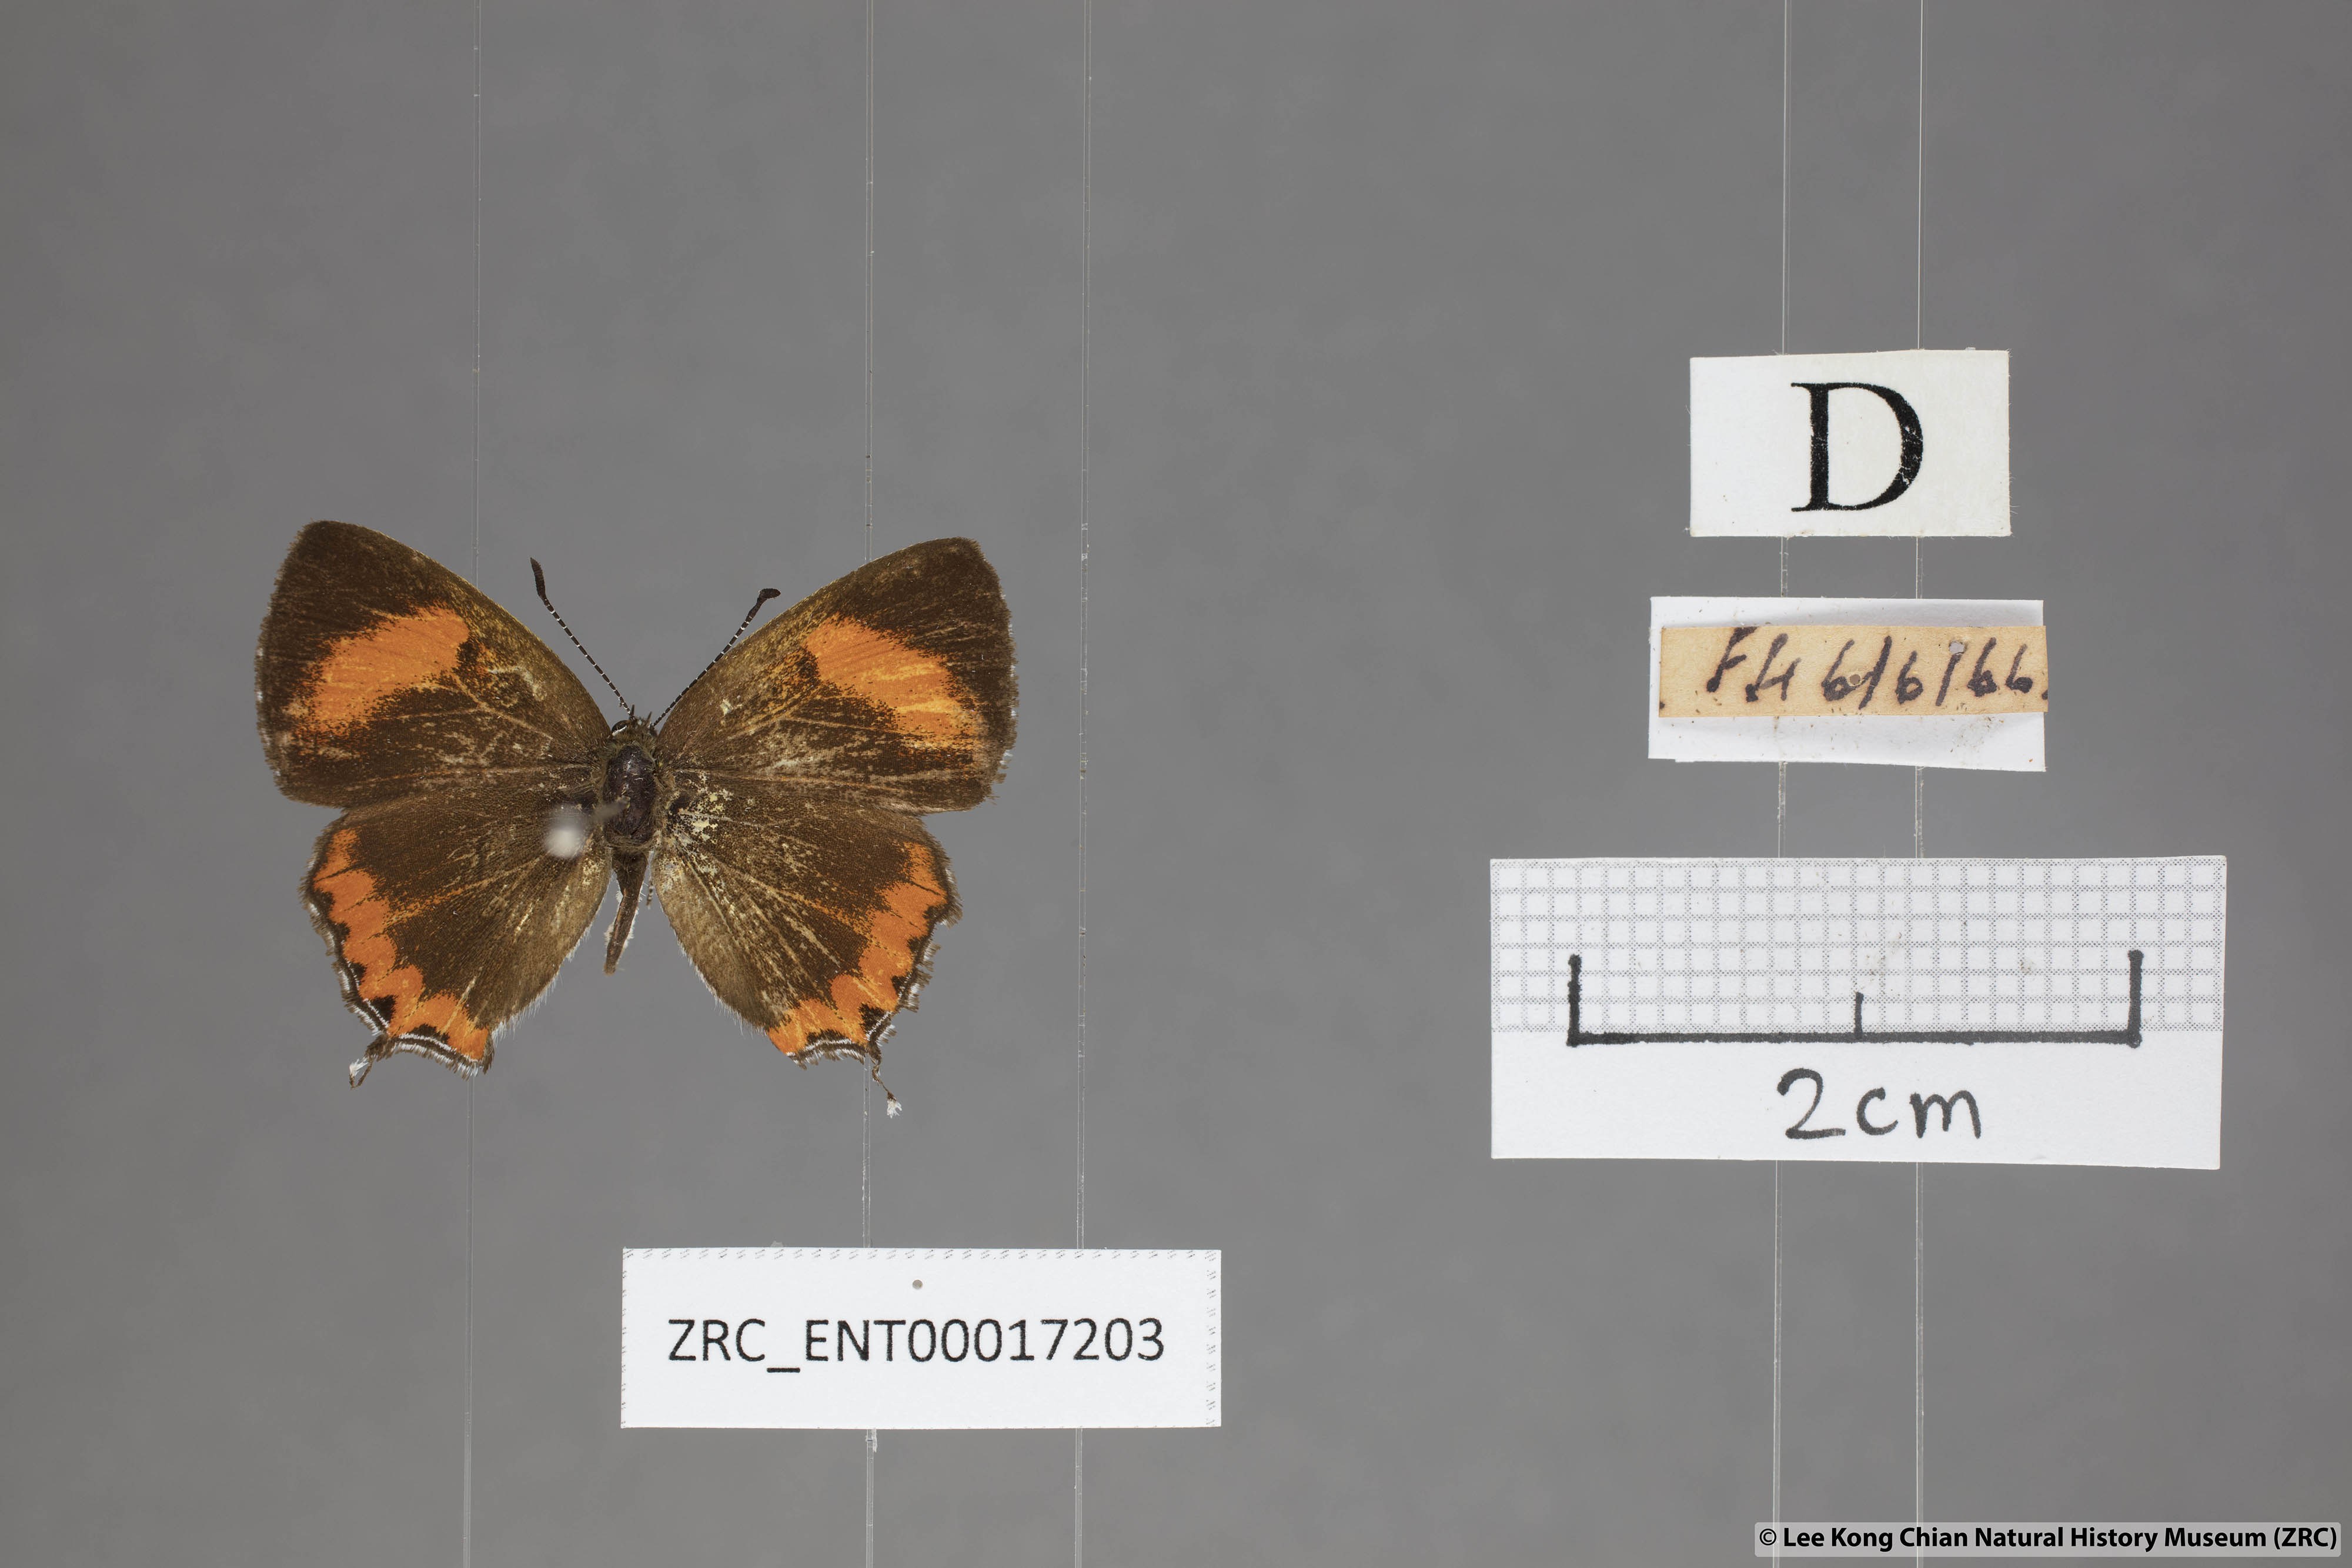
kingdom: Animalia
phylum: Arthropoda
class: Insecta
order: Lepidoptera
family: Lycaenidae
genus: Heliophorus
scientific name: Heliophorus epicles
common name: Purple sapphire
